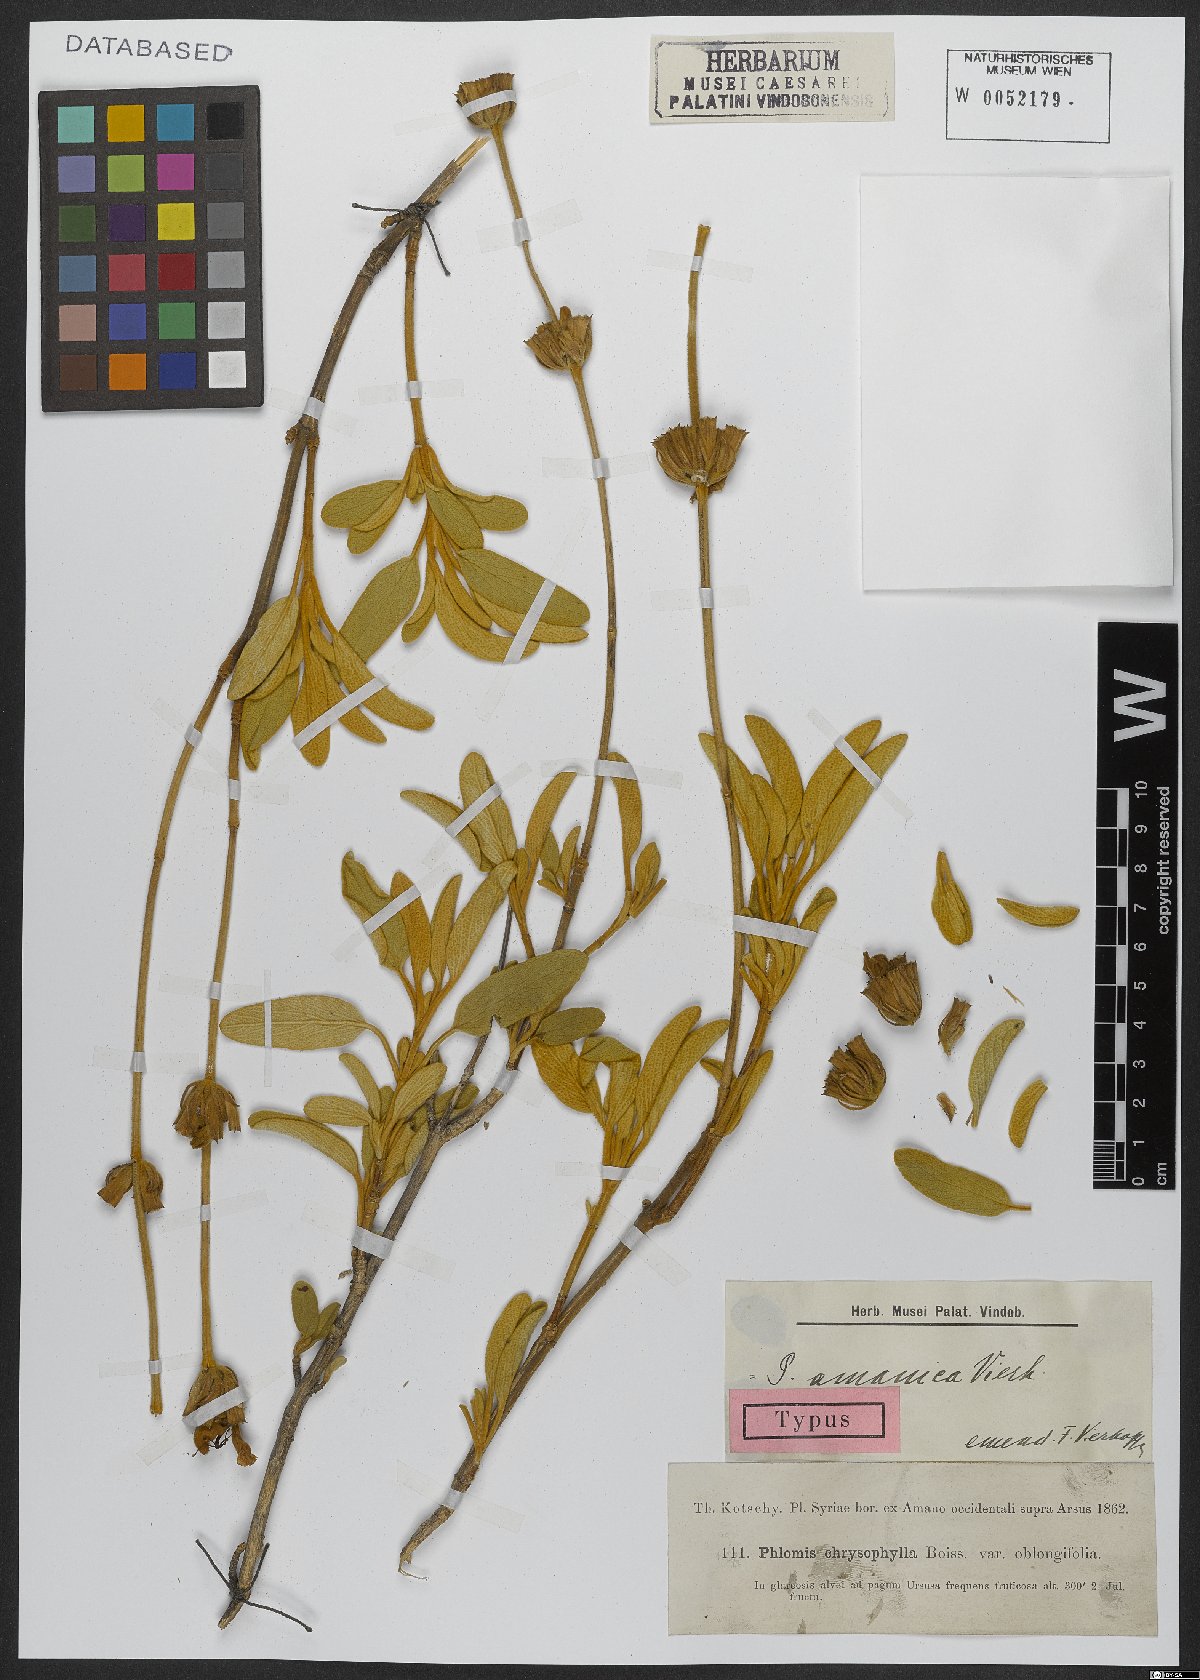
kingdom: Plantae
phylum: Tracheophyta
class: Magnoliopsida
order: Lamiales
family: Lamiaceae
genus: Phlomis
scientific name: Phlomis amanica
